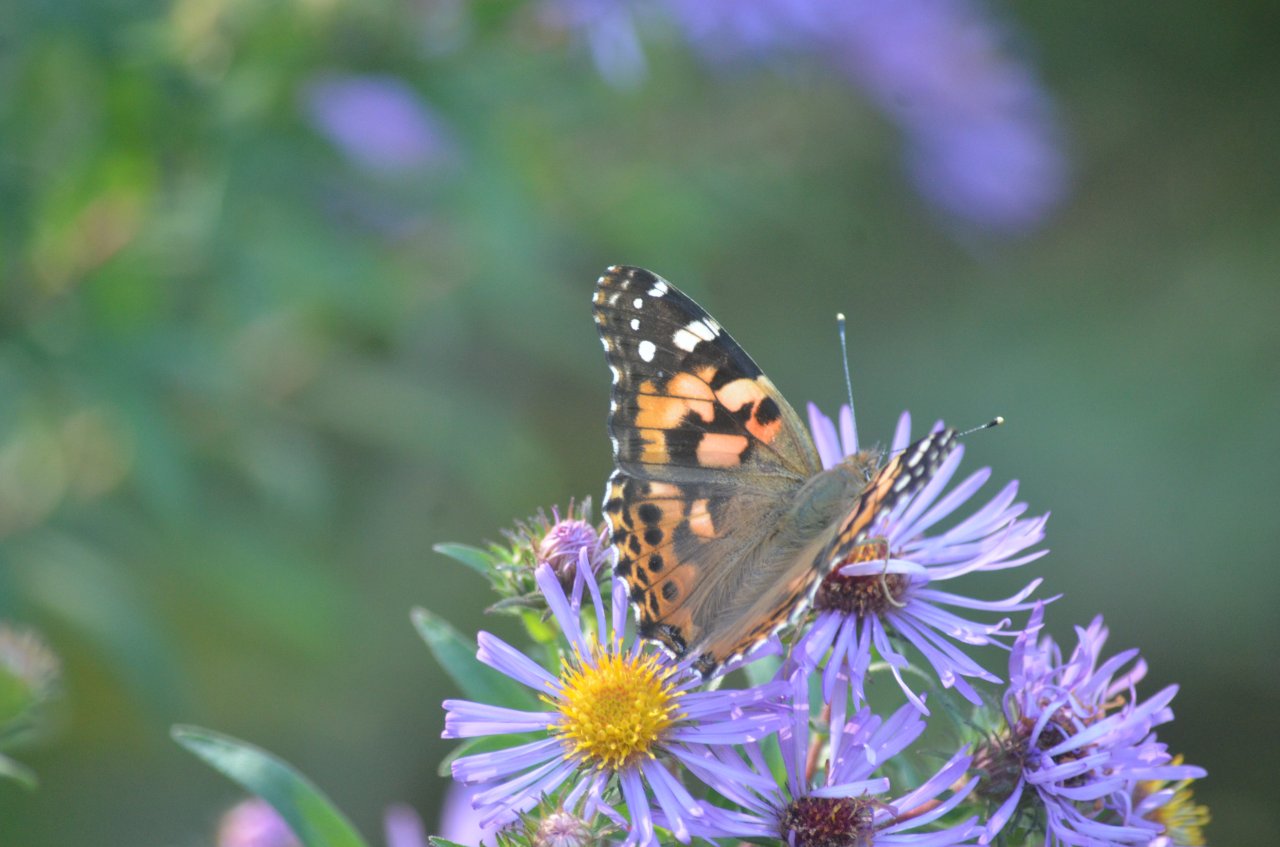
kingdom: Animalia
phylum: Arthropoda
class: Insecta
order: Lepidoptera
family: Nymphalidae
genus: Vanessa
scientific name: Vanessa cardui
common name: Painted Lady
